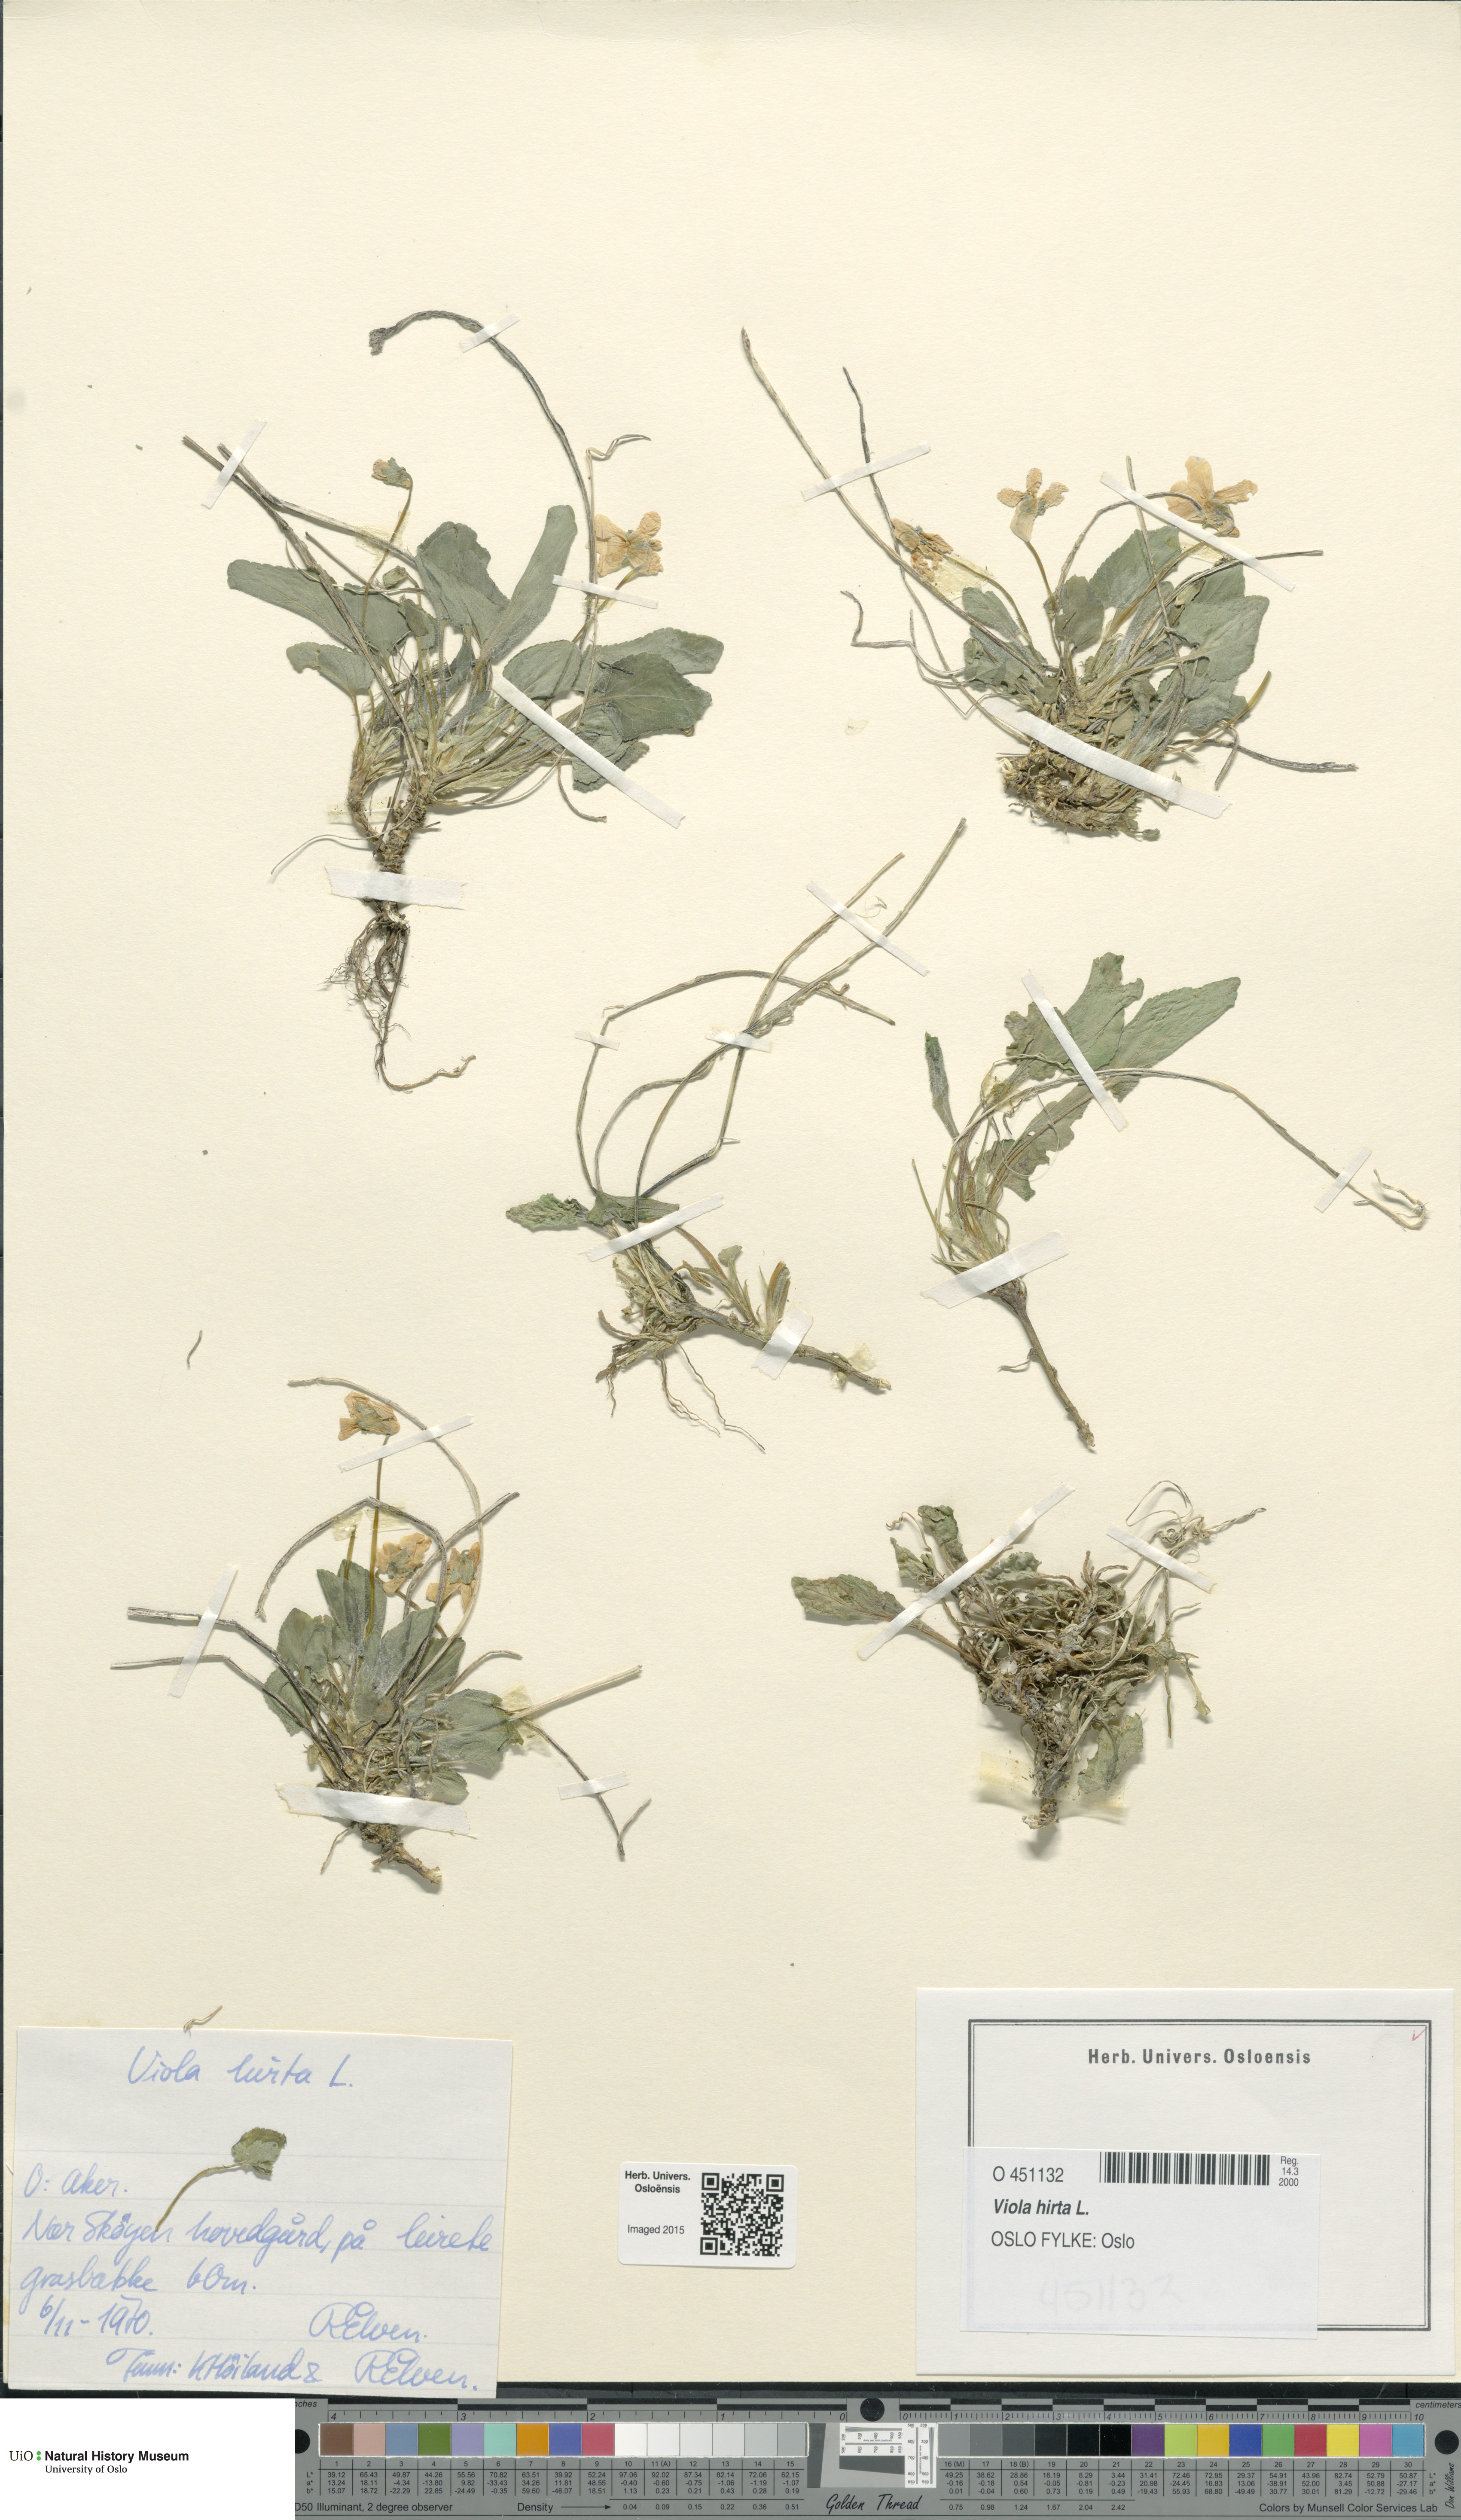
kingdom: Plantae
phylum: Tracheophyta
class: Magnoliopsida
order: Malpighiales
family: Violaceae
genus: Viola
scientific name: Viola hirta
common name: Hairy violet
